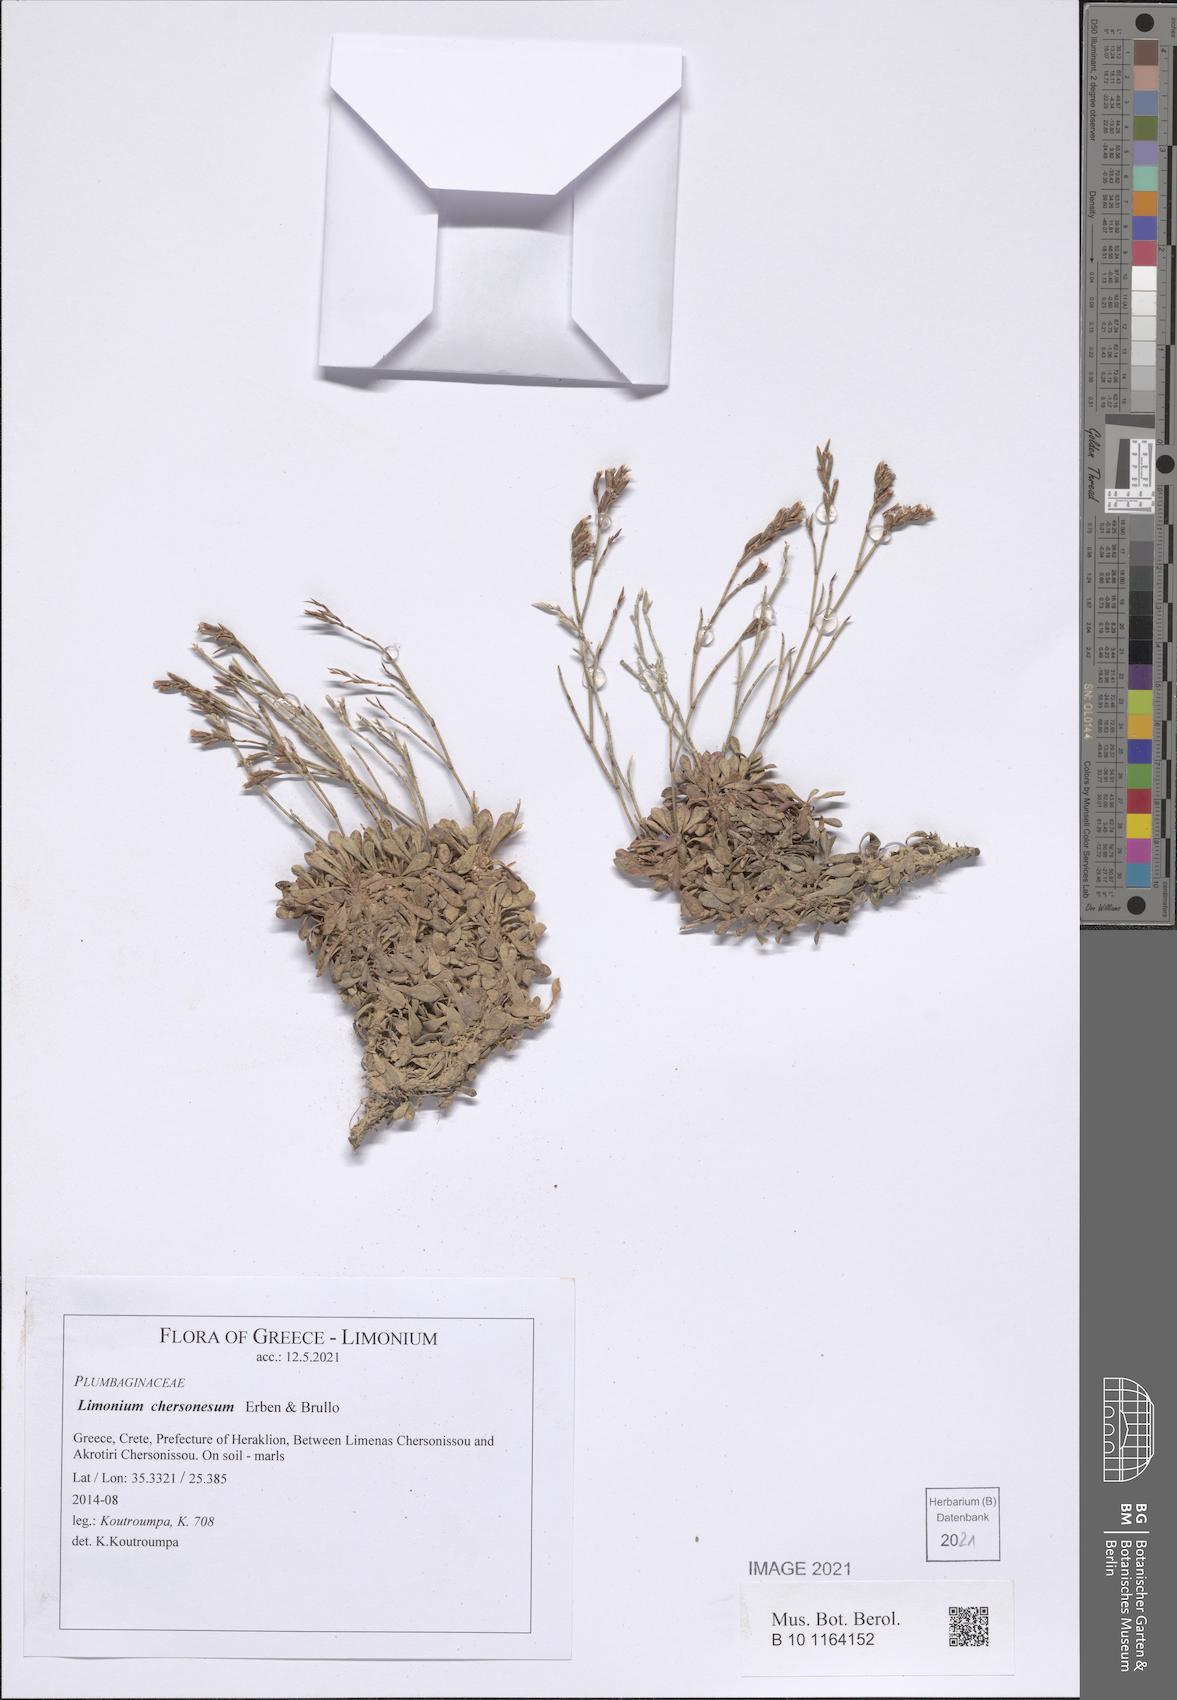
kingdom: Plantae
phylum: Tracheophyta
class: Magnoliopsida
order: Caryophyllales
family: Plumbaginaceae
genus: Limonium
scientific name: Limonium chersonesum
